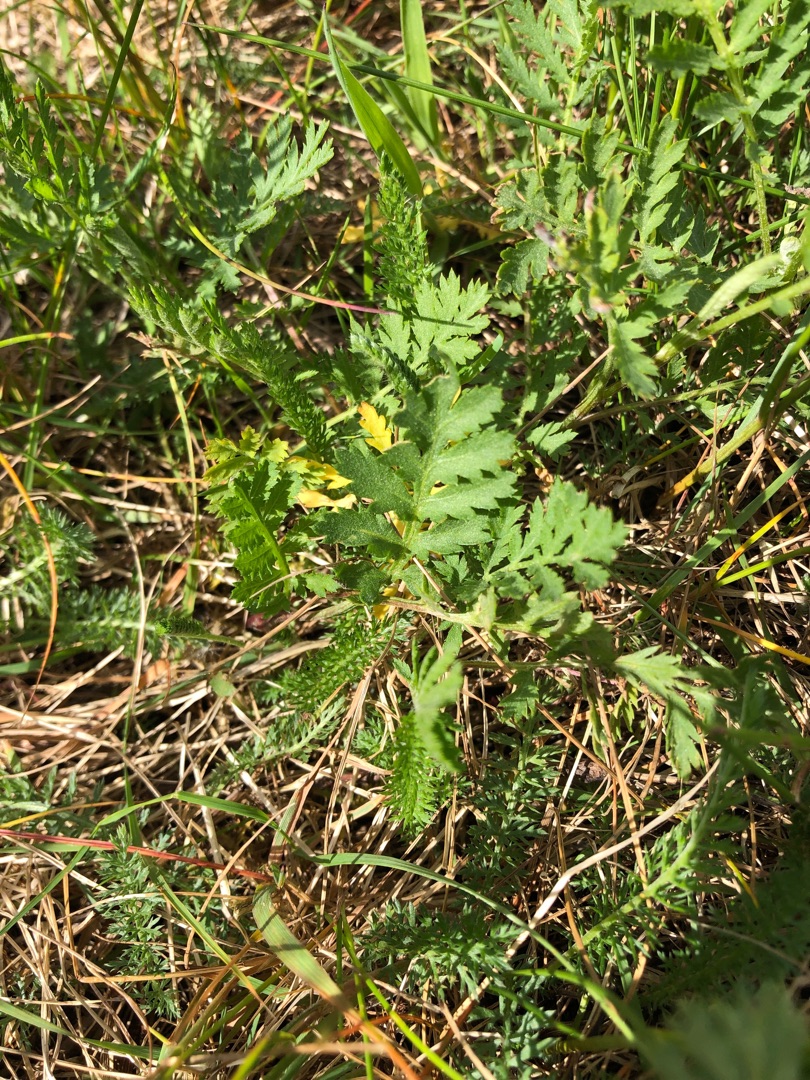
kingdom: Plantae
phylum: Tracheophyta
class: Magnoliopsida
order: Asterales
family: Asteraceae
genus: Tanacetum
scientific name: Tanacetum vulgare
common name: Rejnfan
